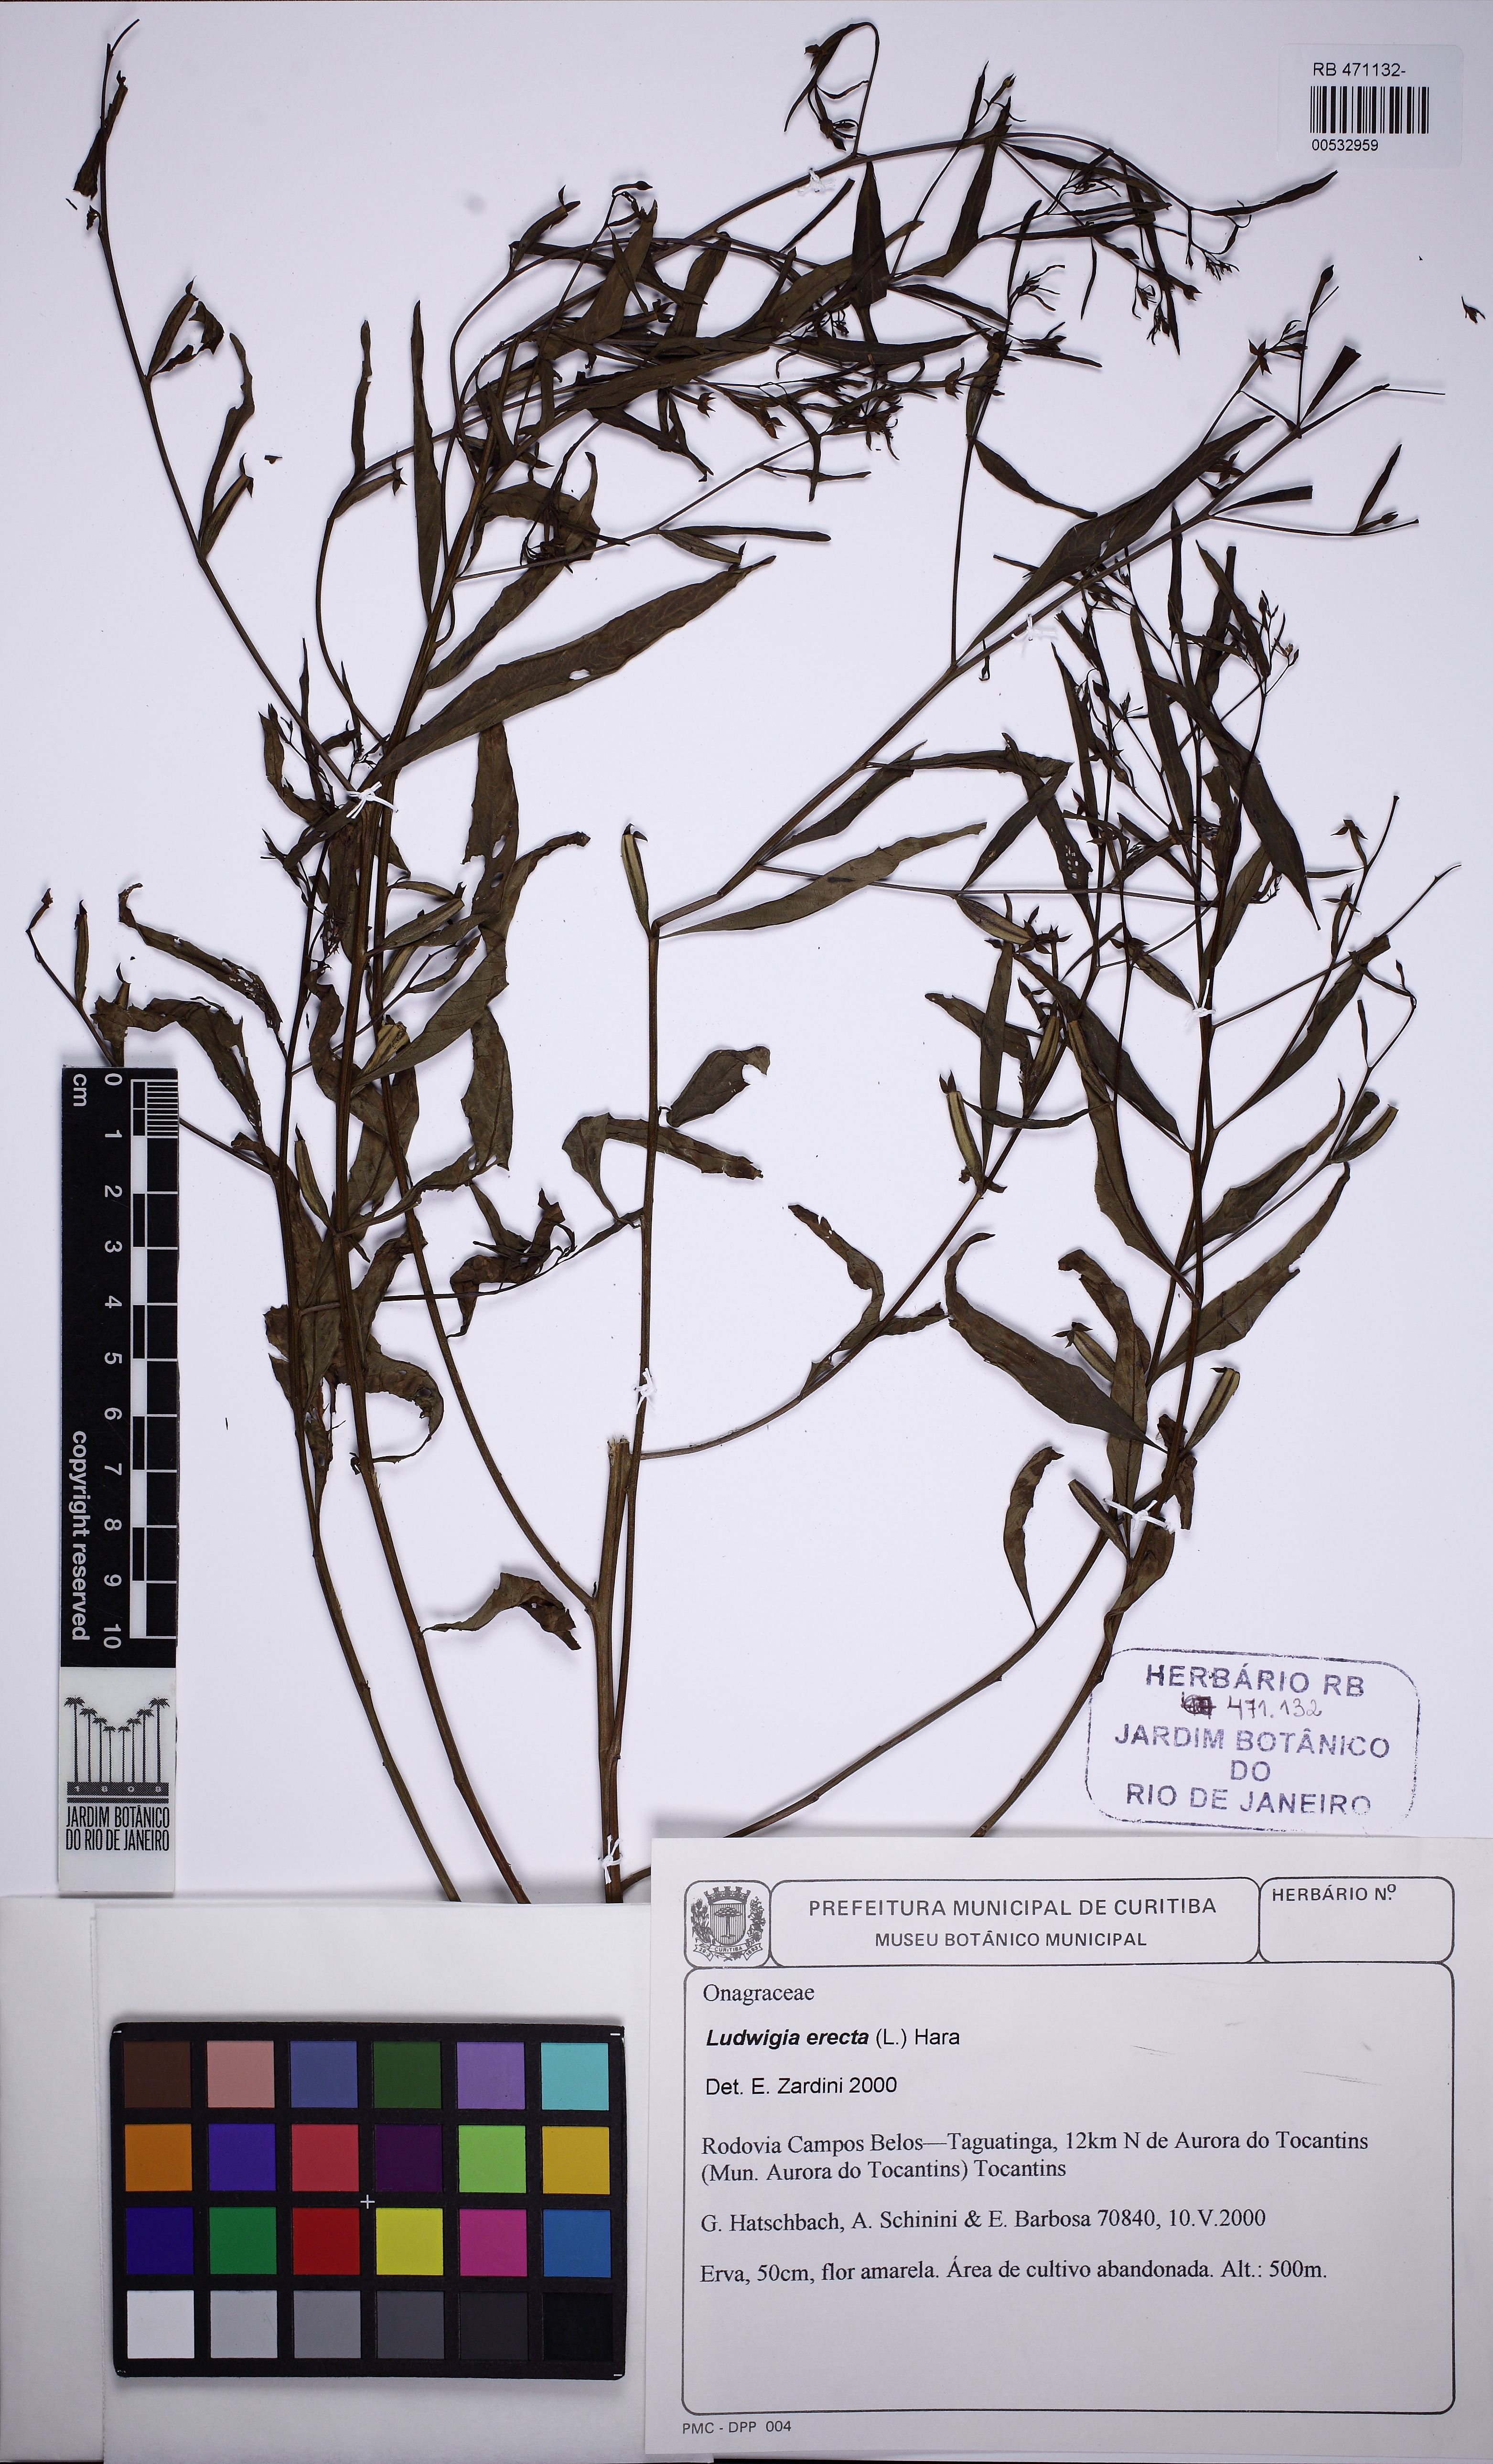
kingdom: Plantae
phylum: Tracheophyta
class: Magnoliopsida
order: Myrtales
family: Onagraceae
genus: Ludwigia
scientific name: Ludwigia erecta
